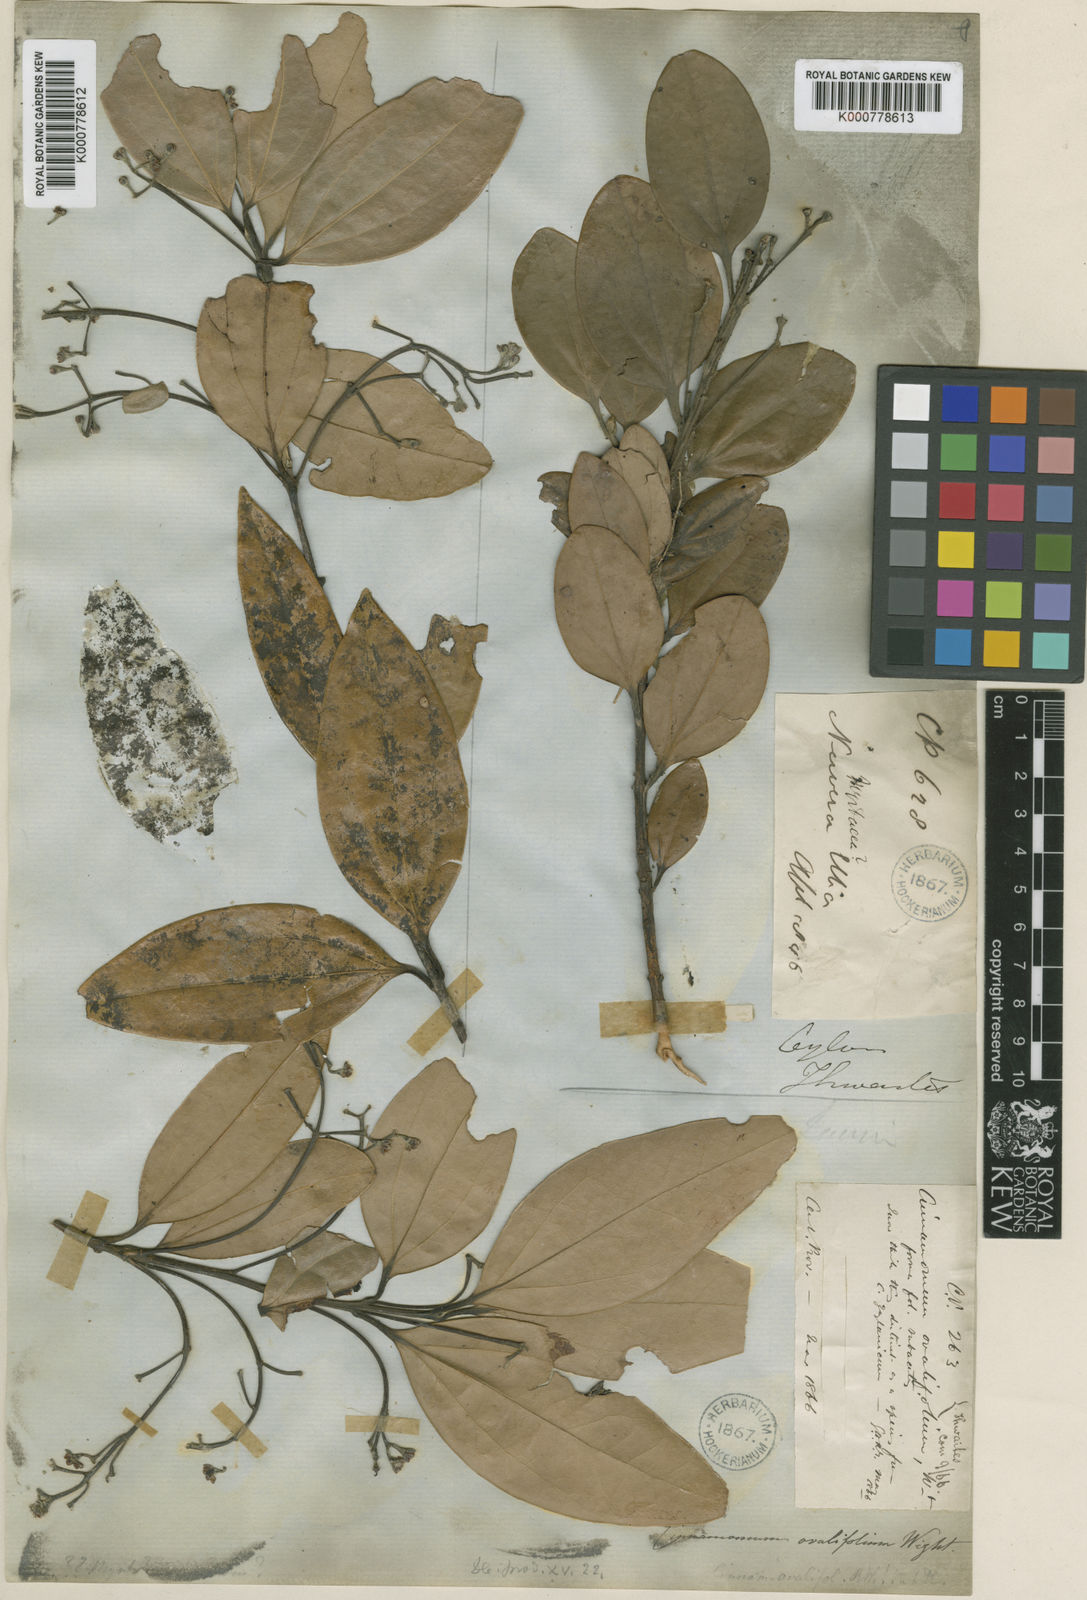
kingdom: Plantae
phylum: Tracheophyta
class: Magnoliopsida
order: Laurales
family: Lauraceae
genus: Cinnamomum
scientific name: Cinnamomum ovalifolium
